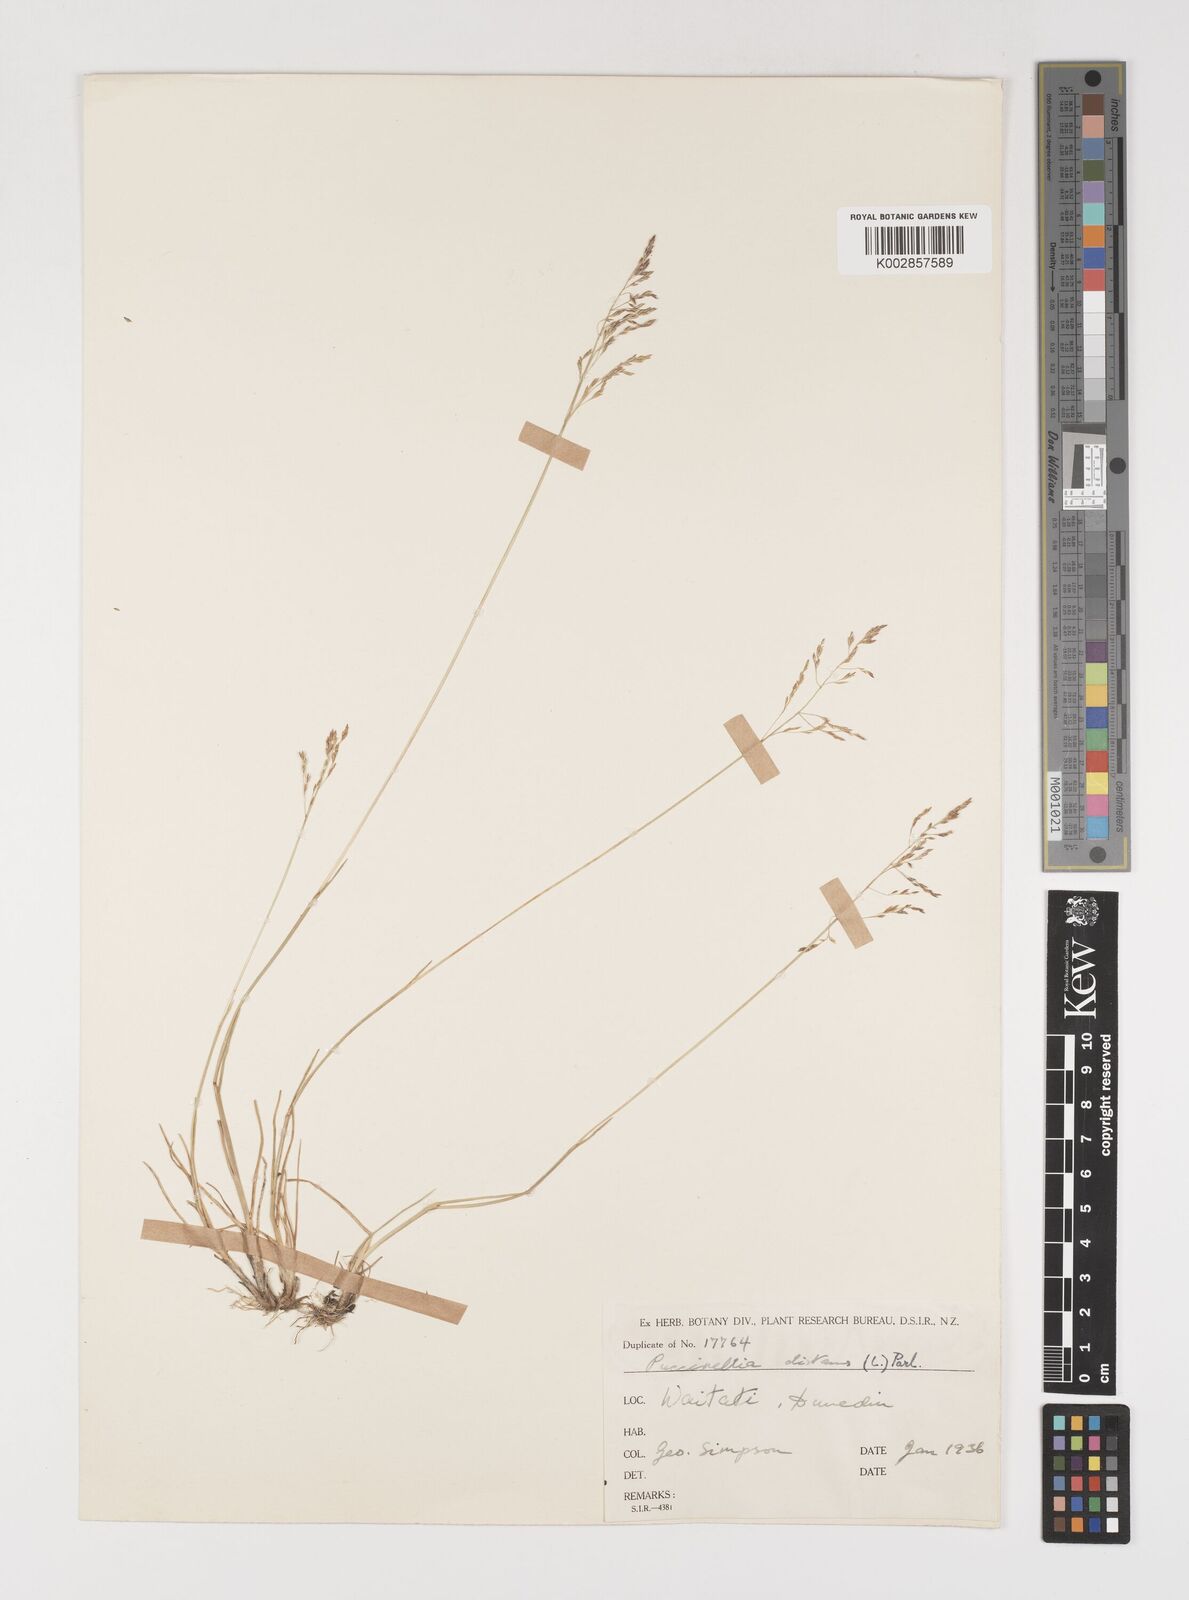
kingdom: Plantae
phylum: Tracheophyta
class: Liliopsida
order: Poales
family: Poaceae
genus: Puccinellia
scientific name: Puccinellia distans
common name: Weeping alkaligrass
